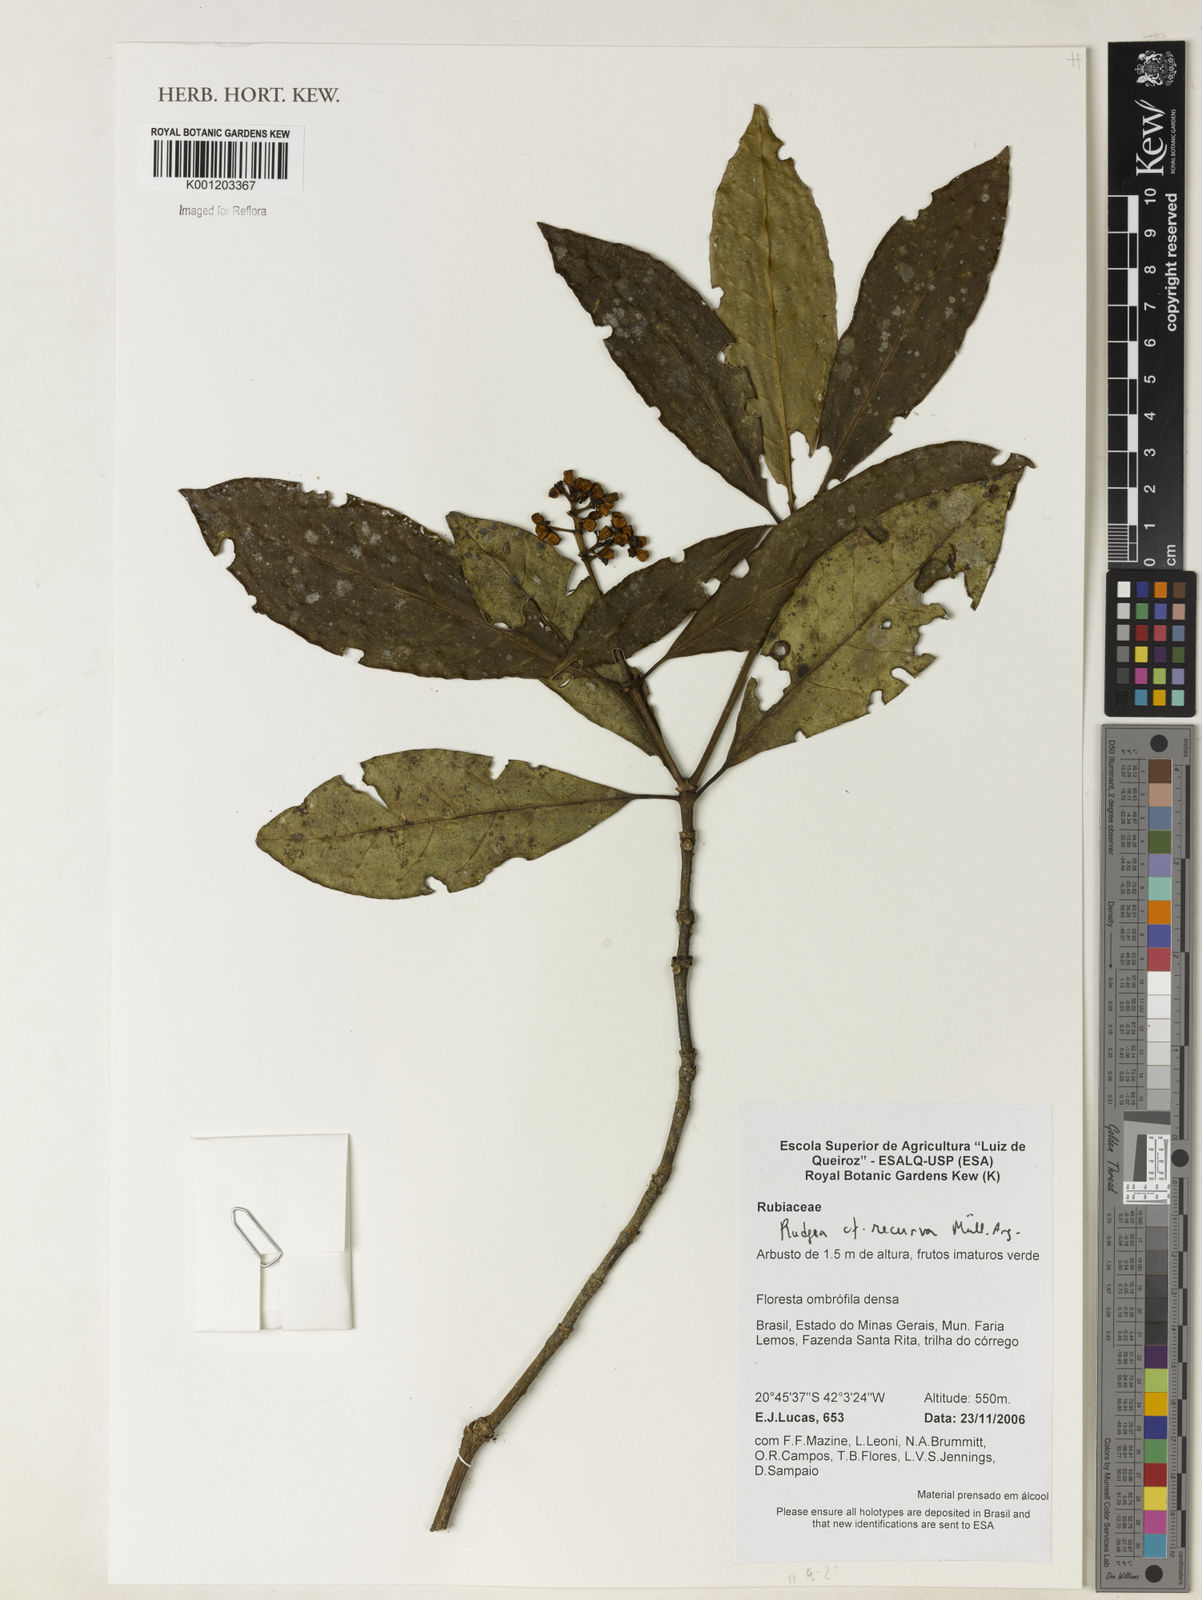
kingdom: Plantae
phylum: Tracheophyta
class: Magnoliopsida
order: Gentianales
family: Rubiaceae
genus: Rudgea
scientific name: Rudgea
